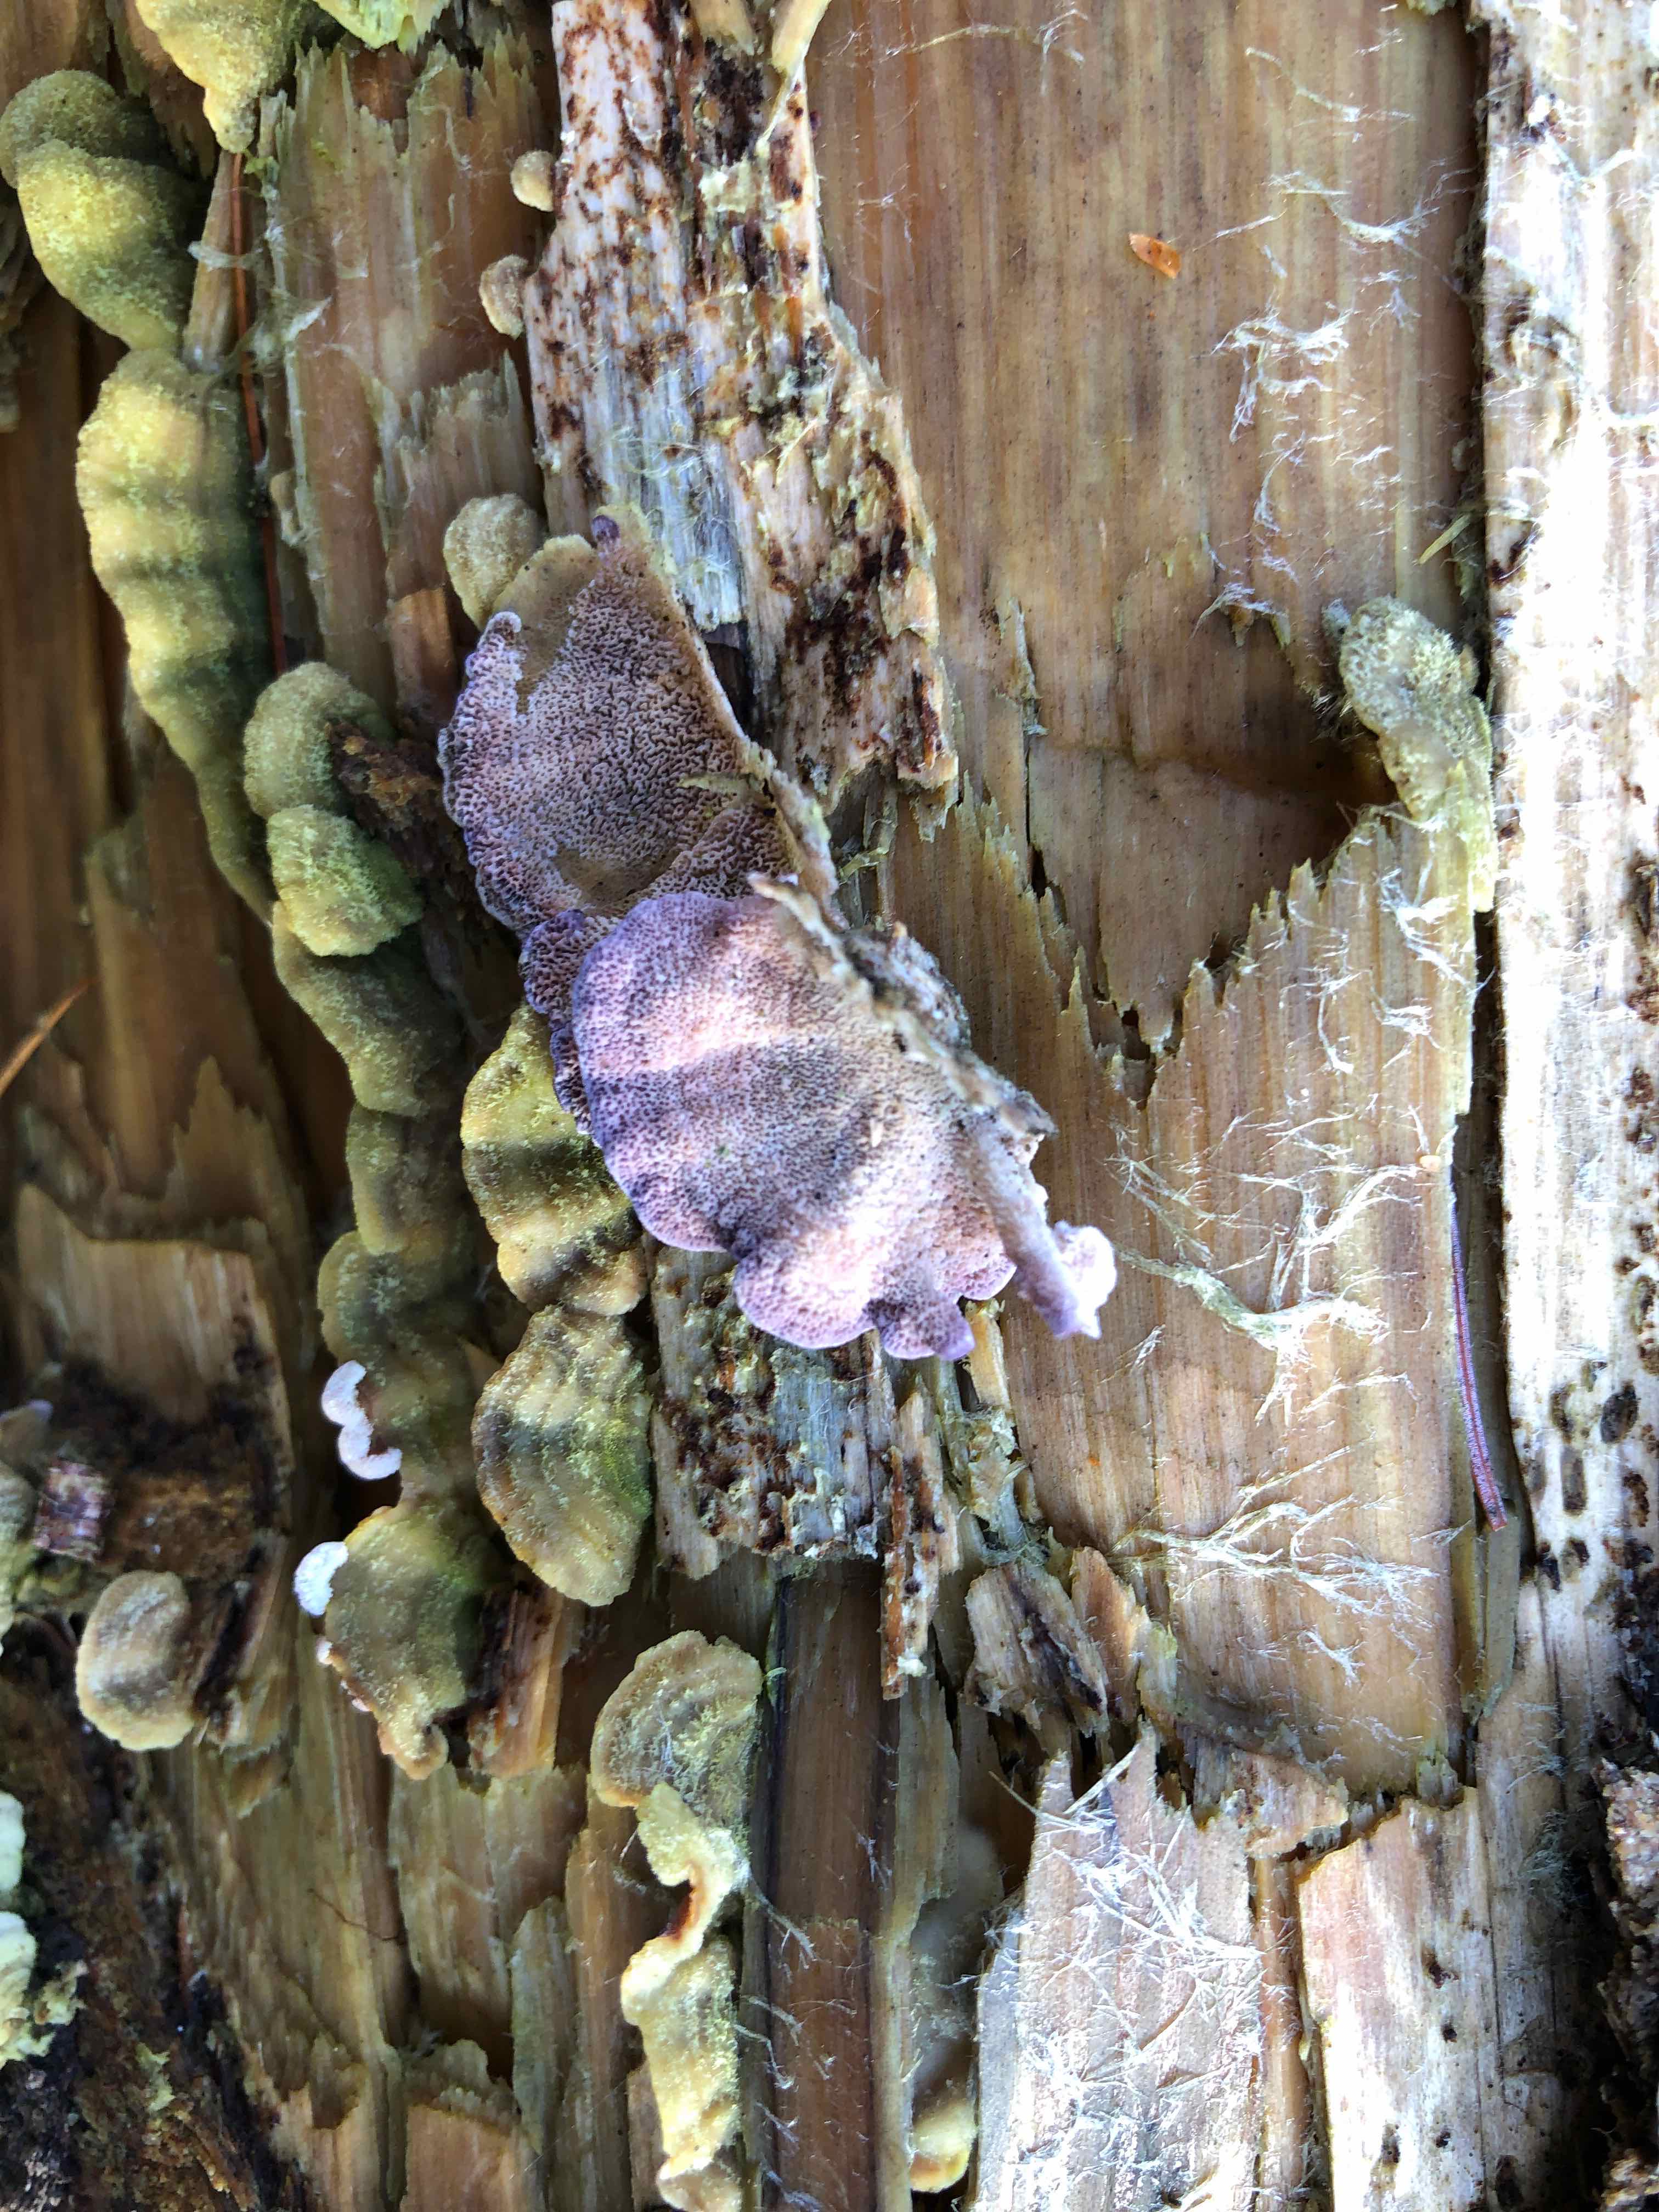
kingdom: Fungi
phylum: Basidiomycota
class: Agaricomycetes
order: Hymenochaetales
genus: Trichaptum
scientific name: Trichaptum abietinum
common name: almindelig violporesvamp
